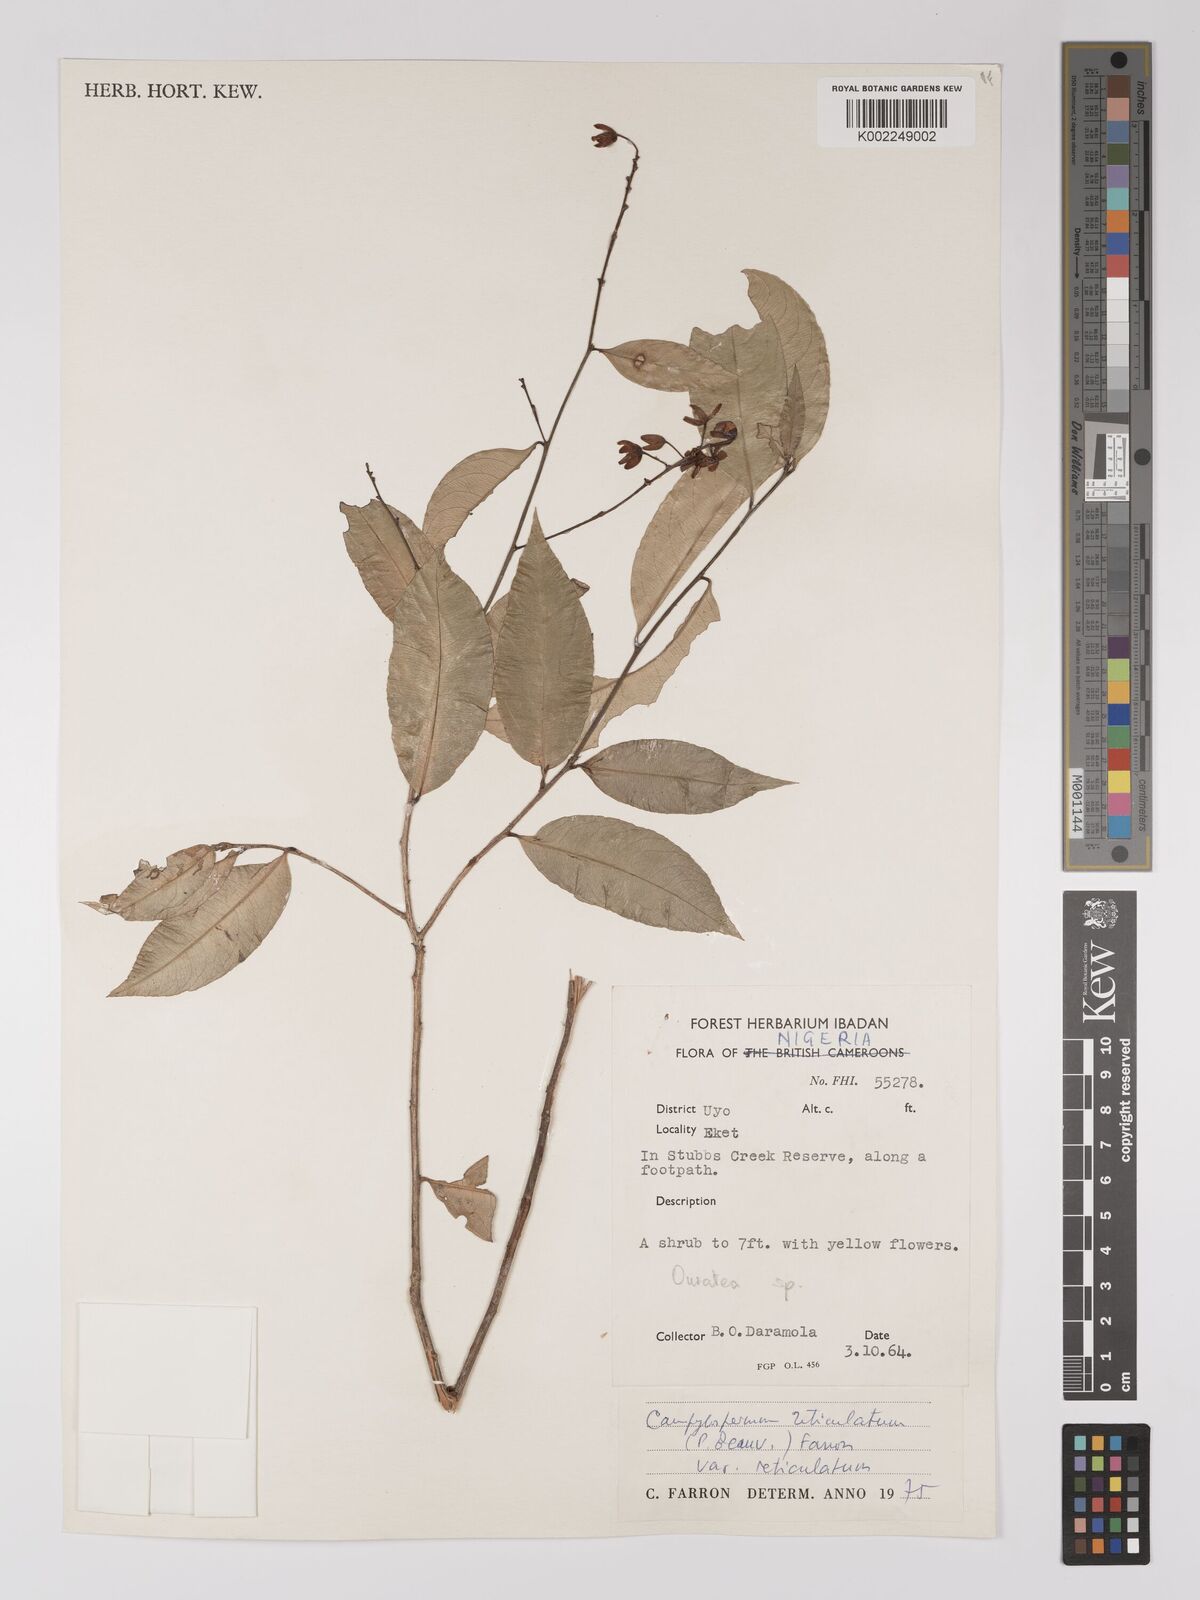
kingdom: Plantae
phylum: Tracheophyta
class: Magnoliopsida
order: Malpighiales
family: Ochnaceae
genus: Campylospermum
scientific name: Campylospermum reticulatum
